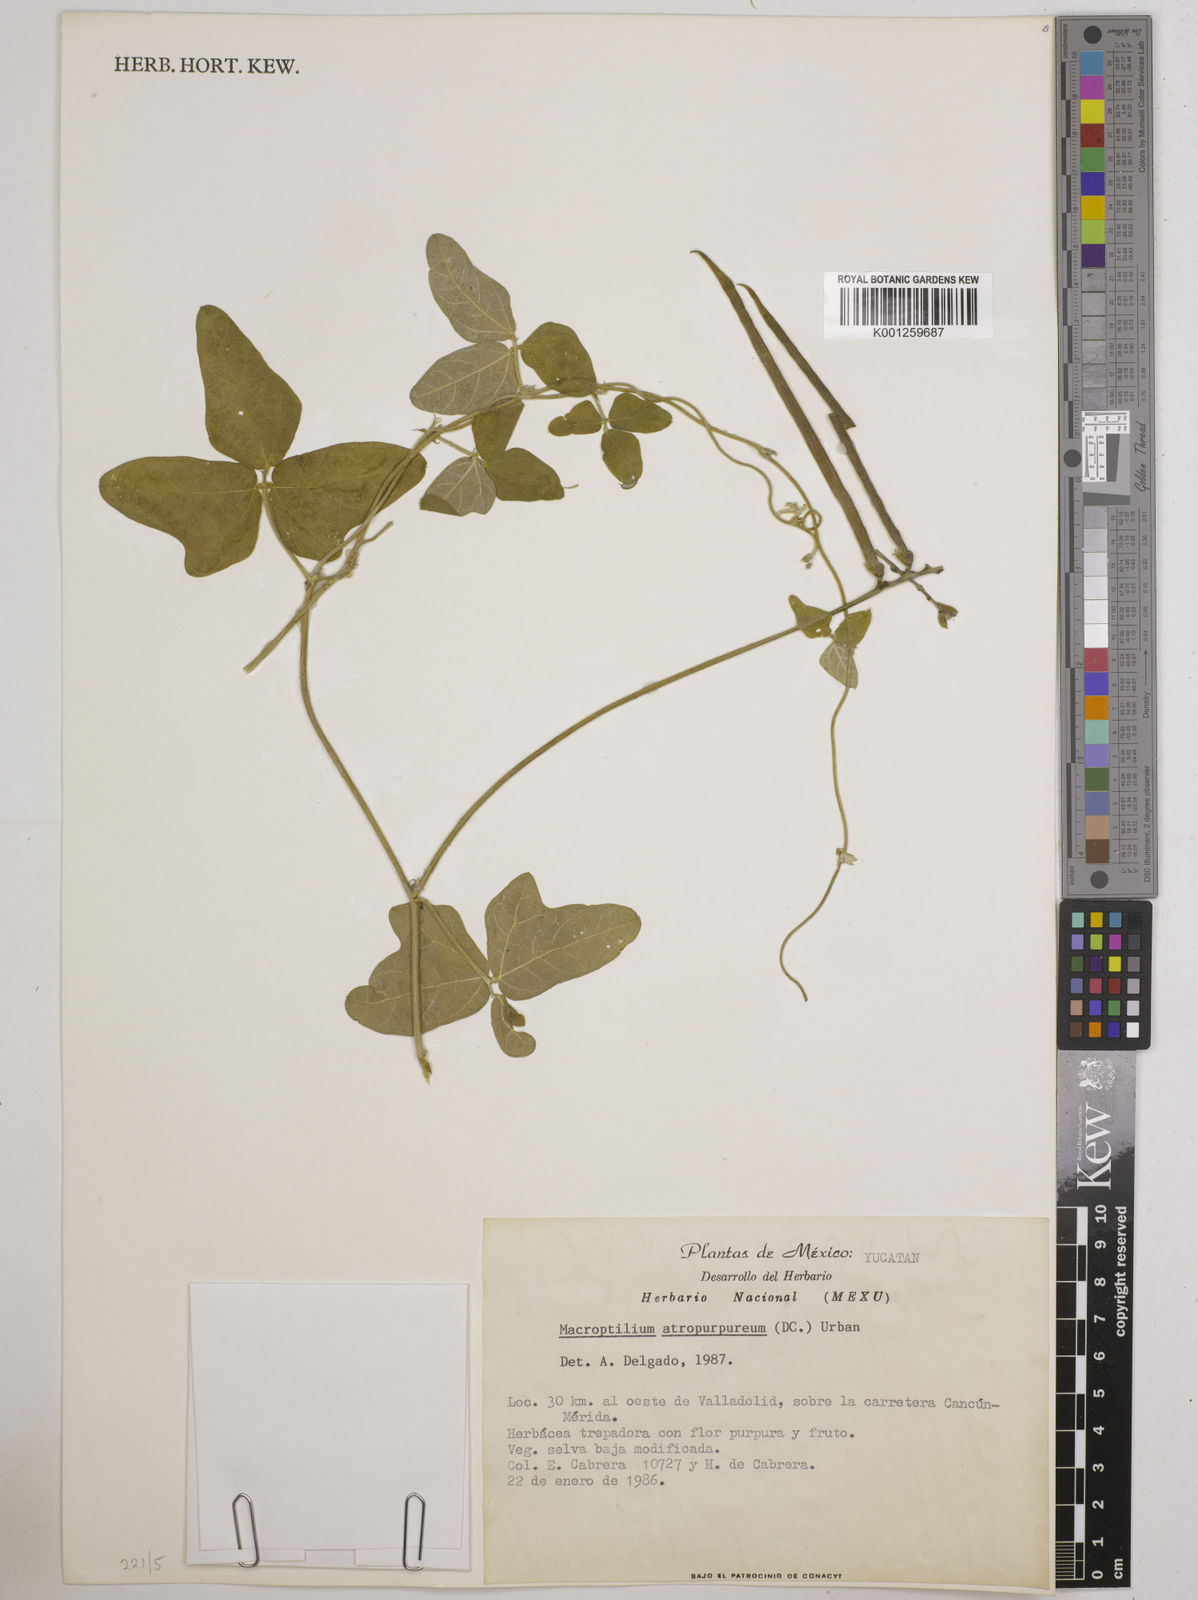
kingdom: Plantae
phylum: Tracheophyta
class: Magnoliopsida
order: Fabales
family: Fabaceae
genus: Macroptilium
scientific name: Macroptilium atropurpureum
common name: Purple bushbean
